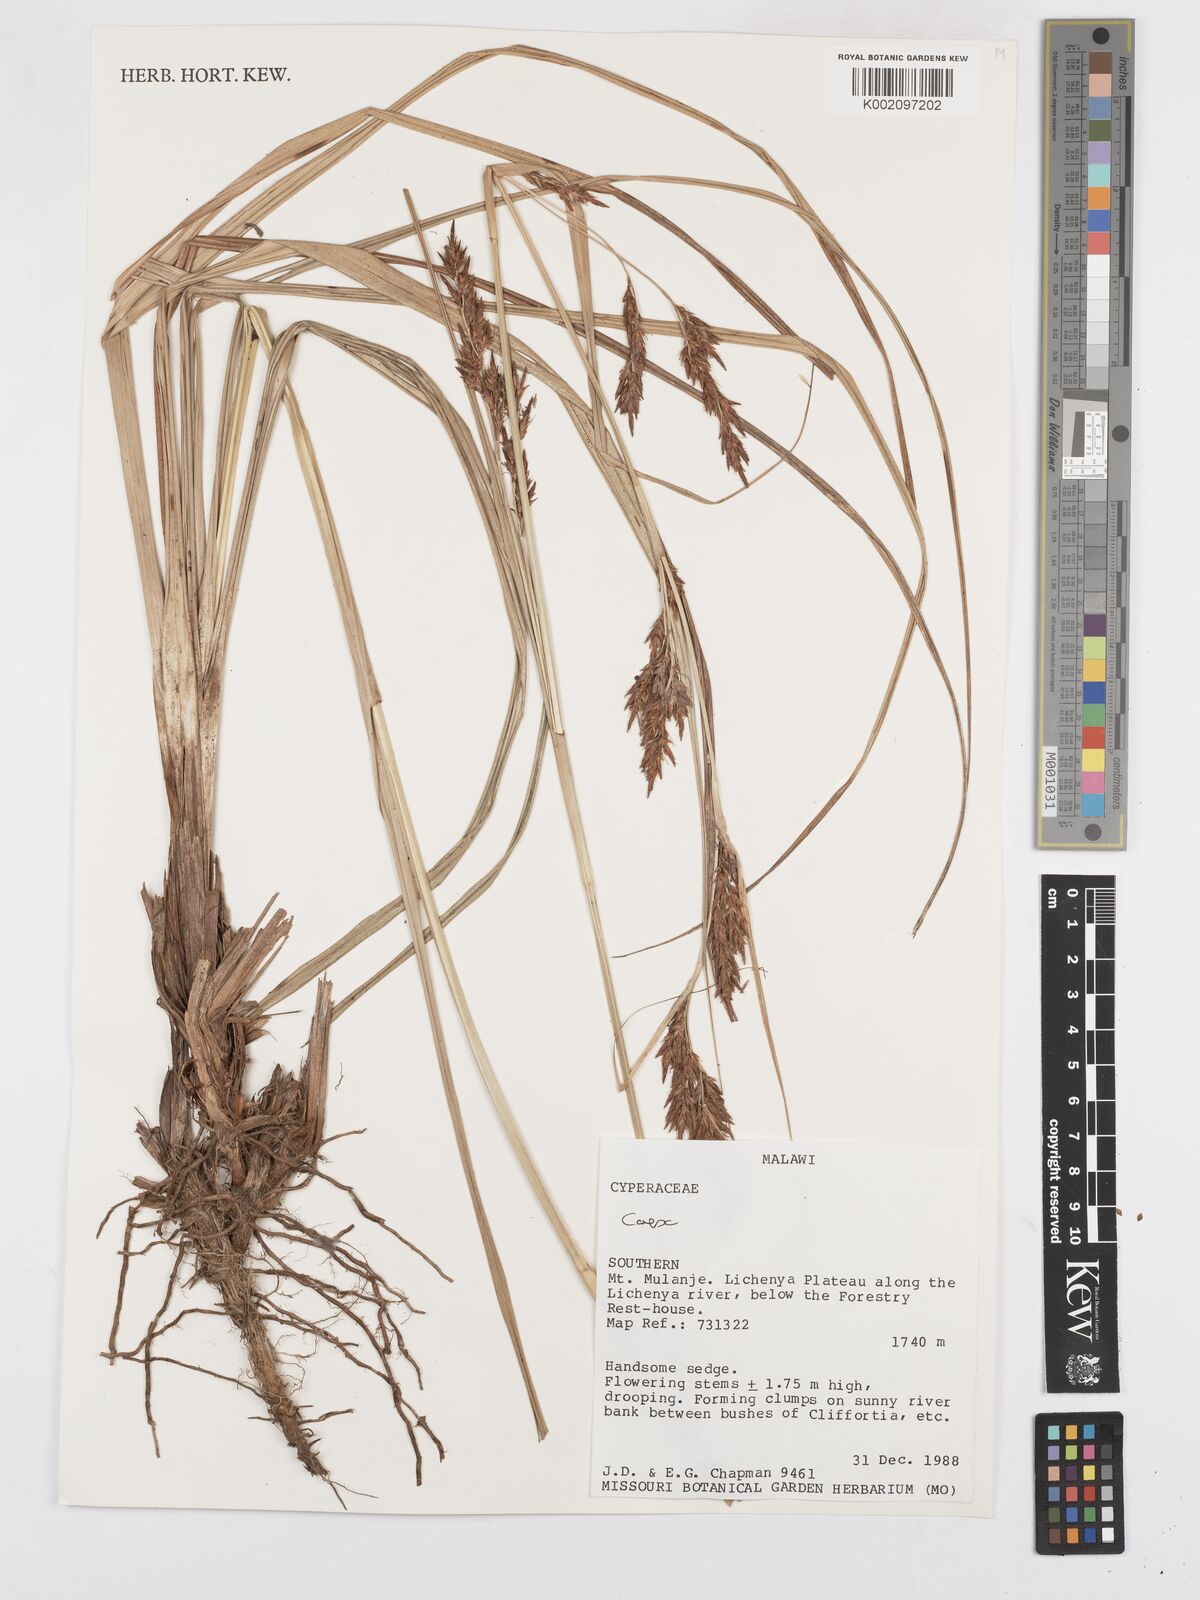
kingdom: Plantae
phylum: Tracheophyta
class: Liliopsida
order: Poales
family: Cyperaceae
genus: Carex
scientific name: Carex
